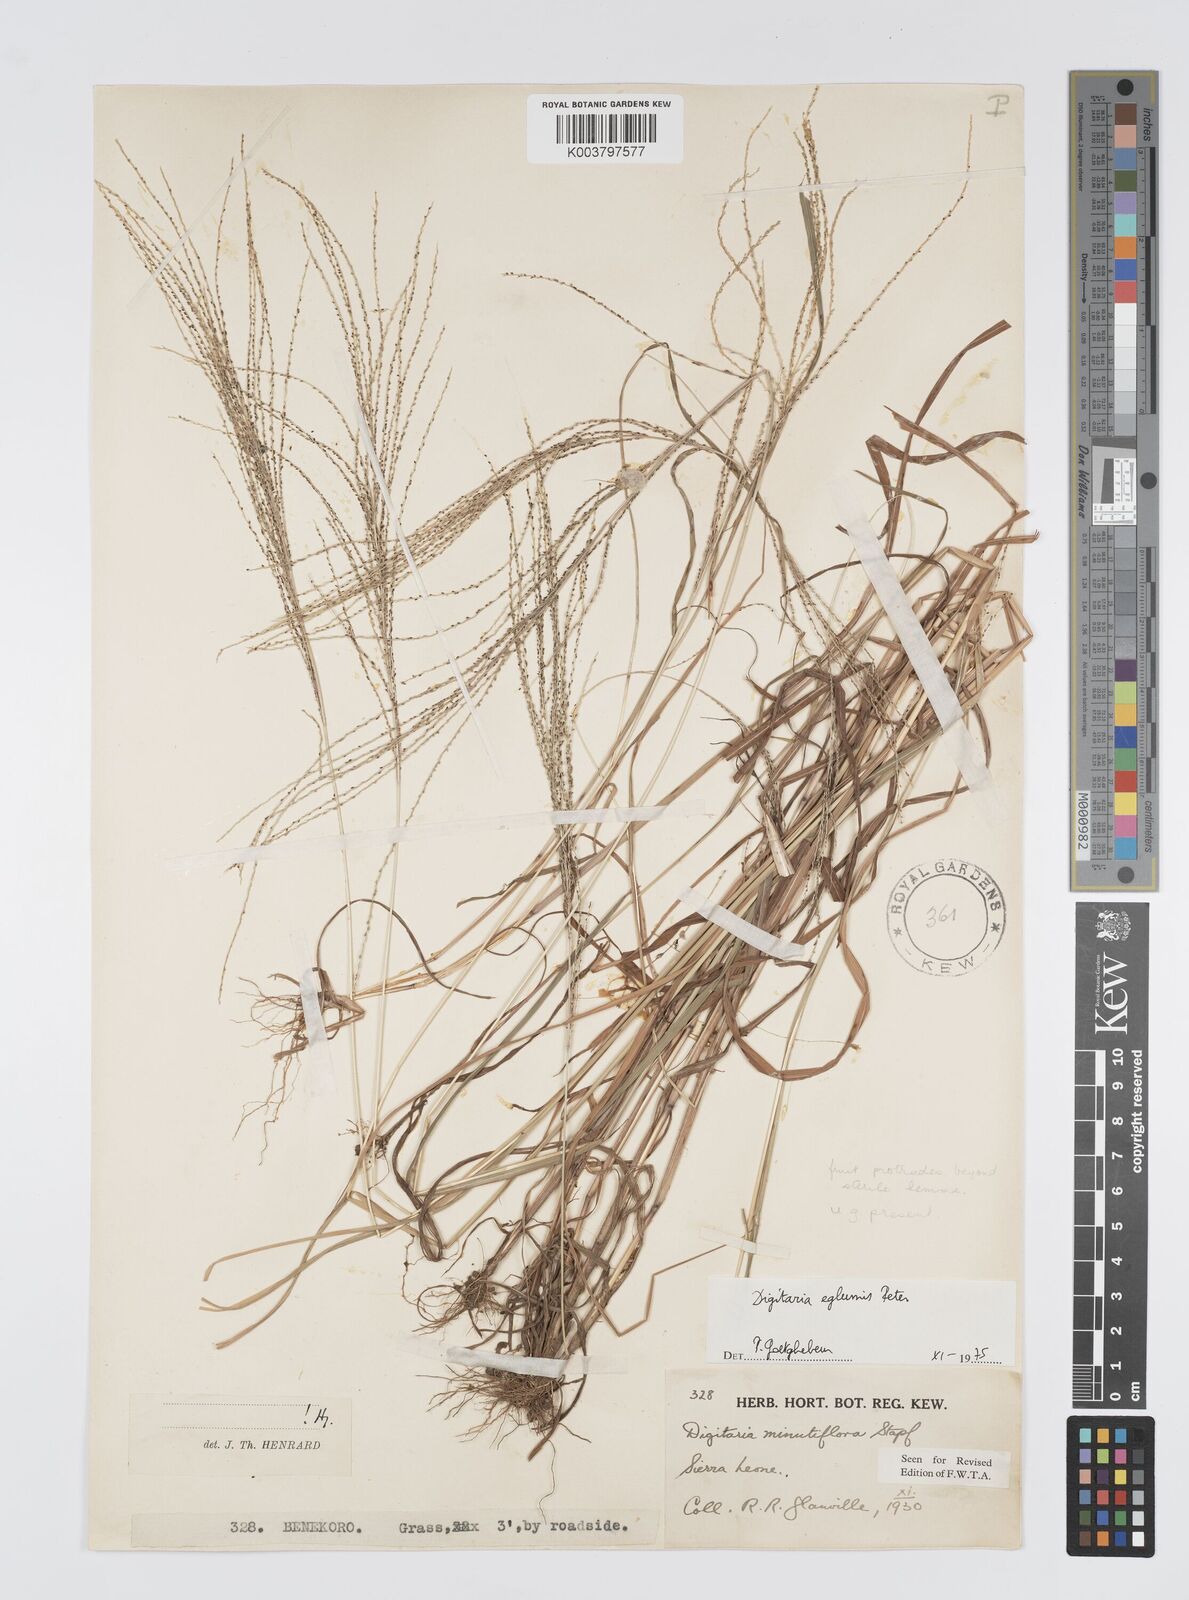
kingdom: Plantae
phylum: Tracheophyta
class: Liliopsida
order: Poales
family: Poaceae
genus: Digitaria
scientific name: Digitaria pseudodiagonalis
